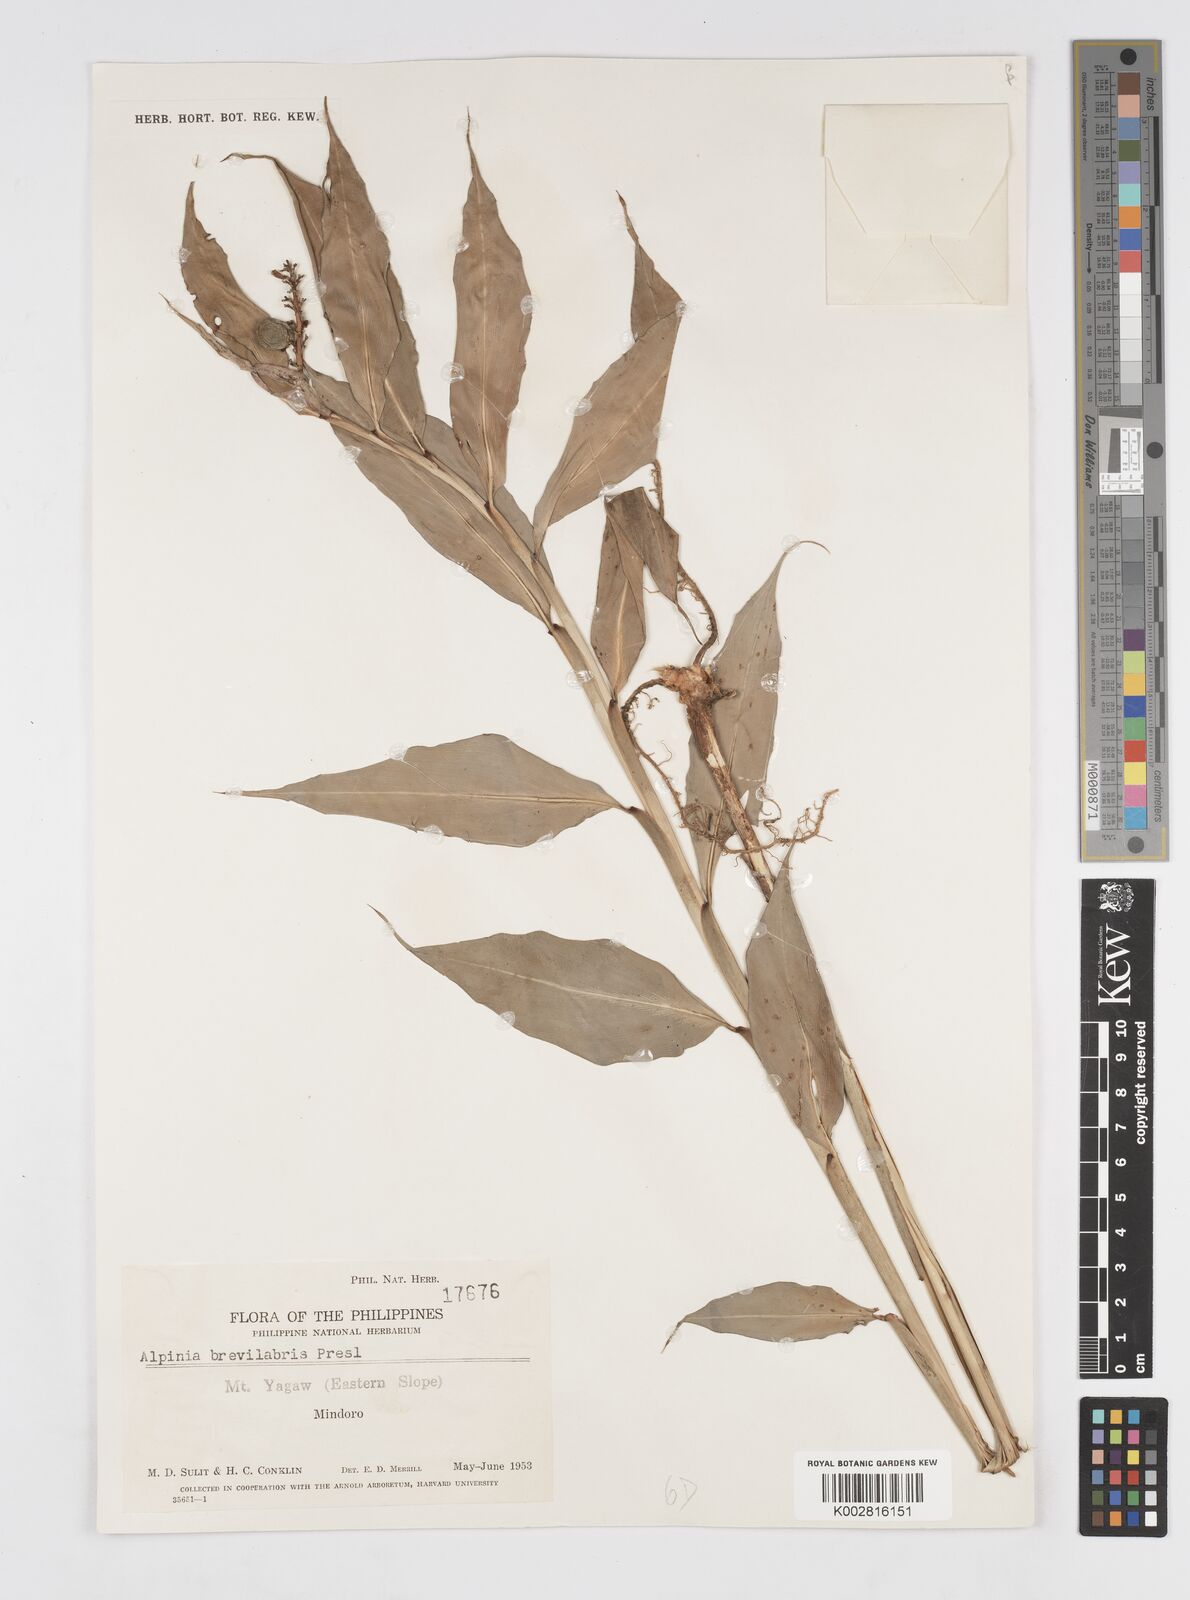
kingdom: Plantae
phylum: Tracheophyta
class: Liliopsida
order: Zingiberales
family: Zingiberaceae
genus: Alpinia
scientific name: Alpinia brevilabris
